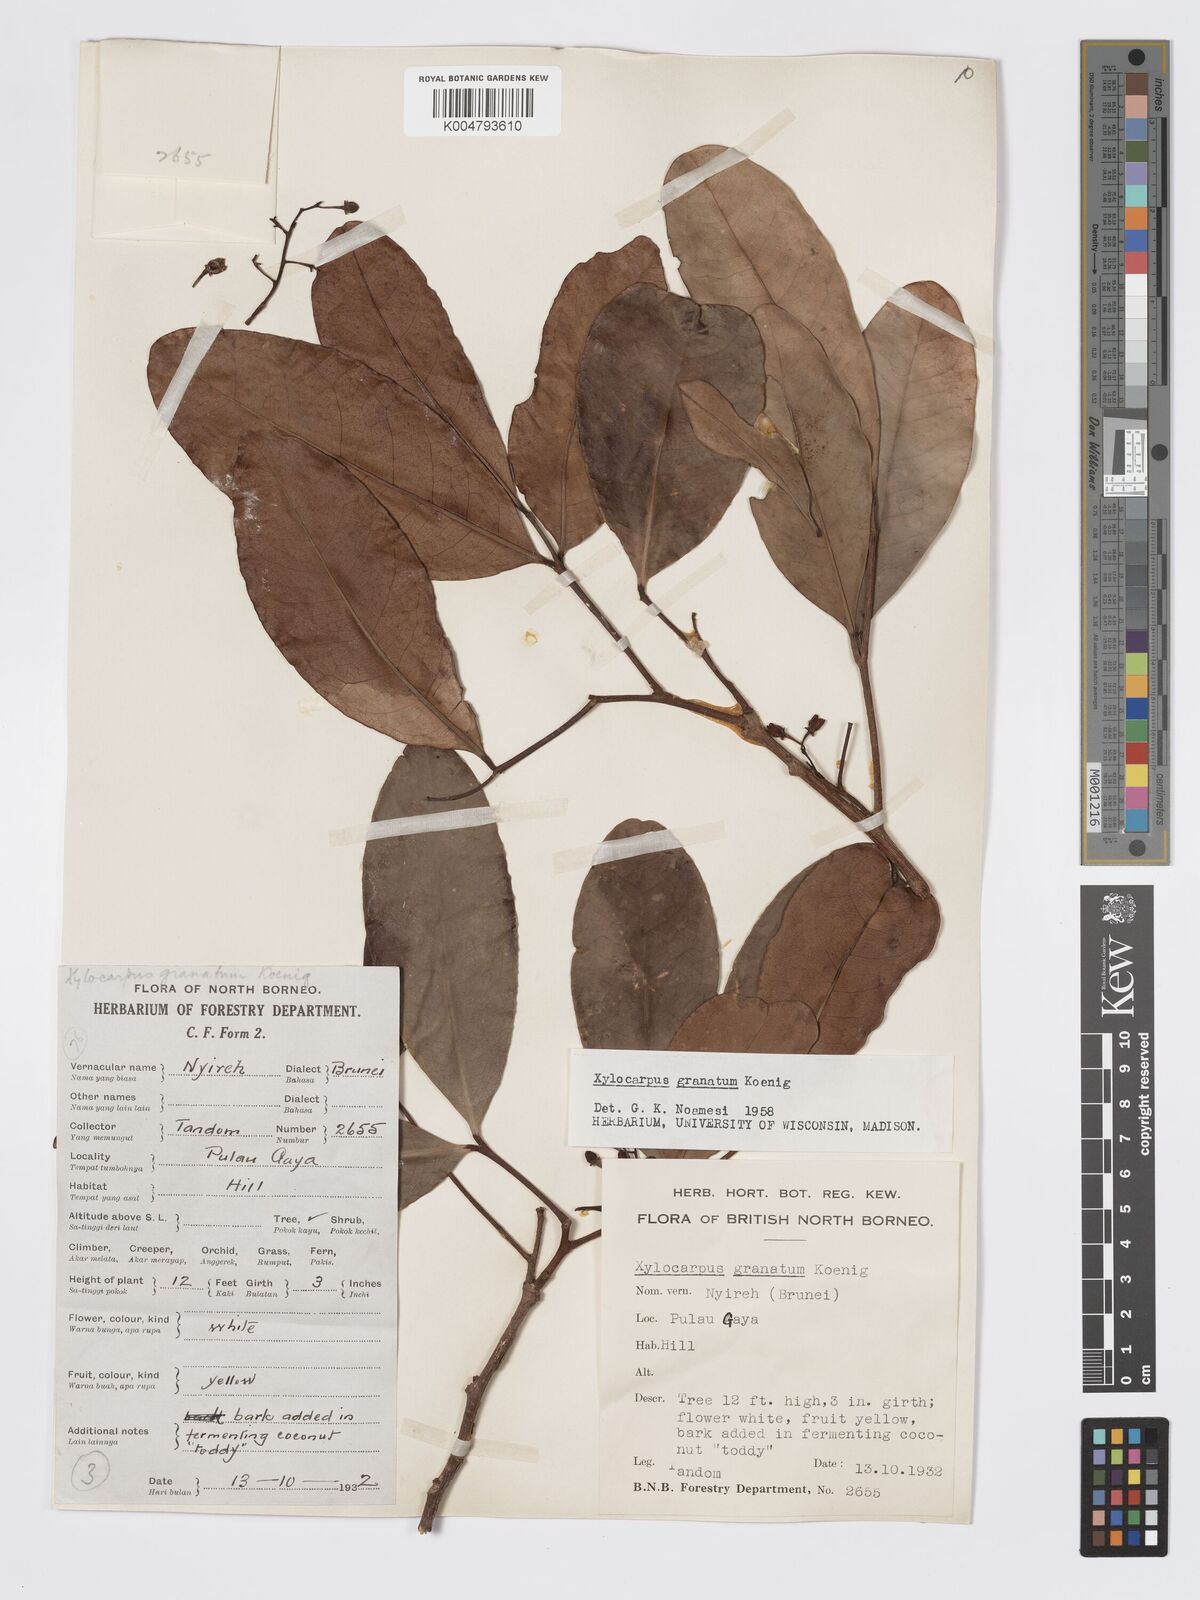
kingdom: Plantae
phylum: Tracheophyta
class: Magnoliopsida
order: Sapindales
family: Meliaceae
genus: Xylocarpus
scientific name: Xylocarpus granatum
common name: Apple mangrove
